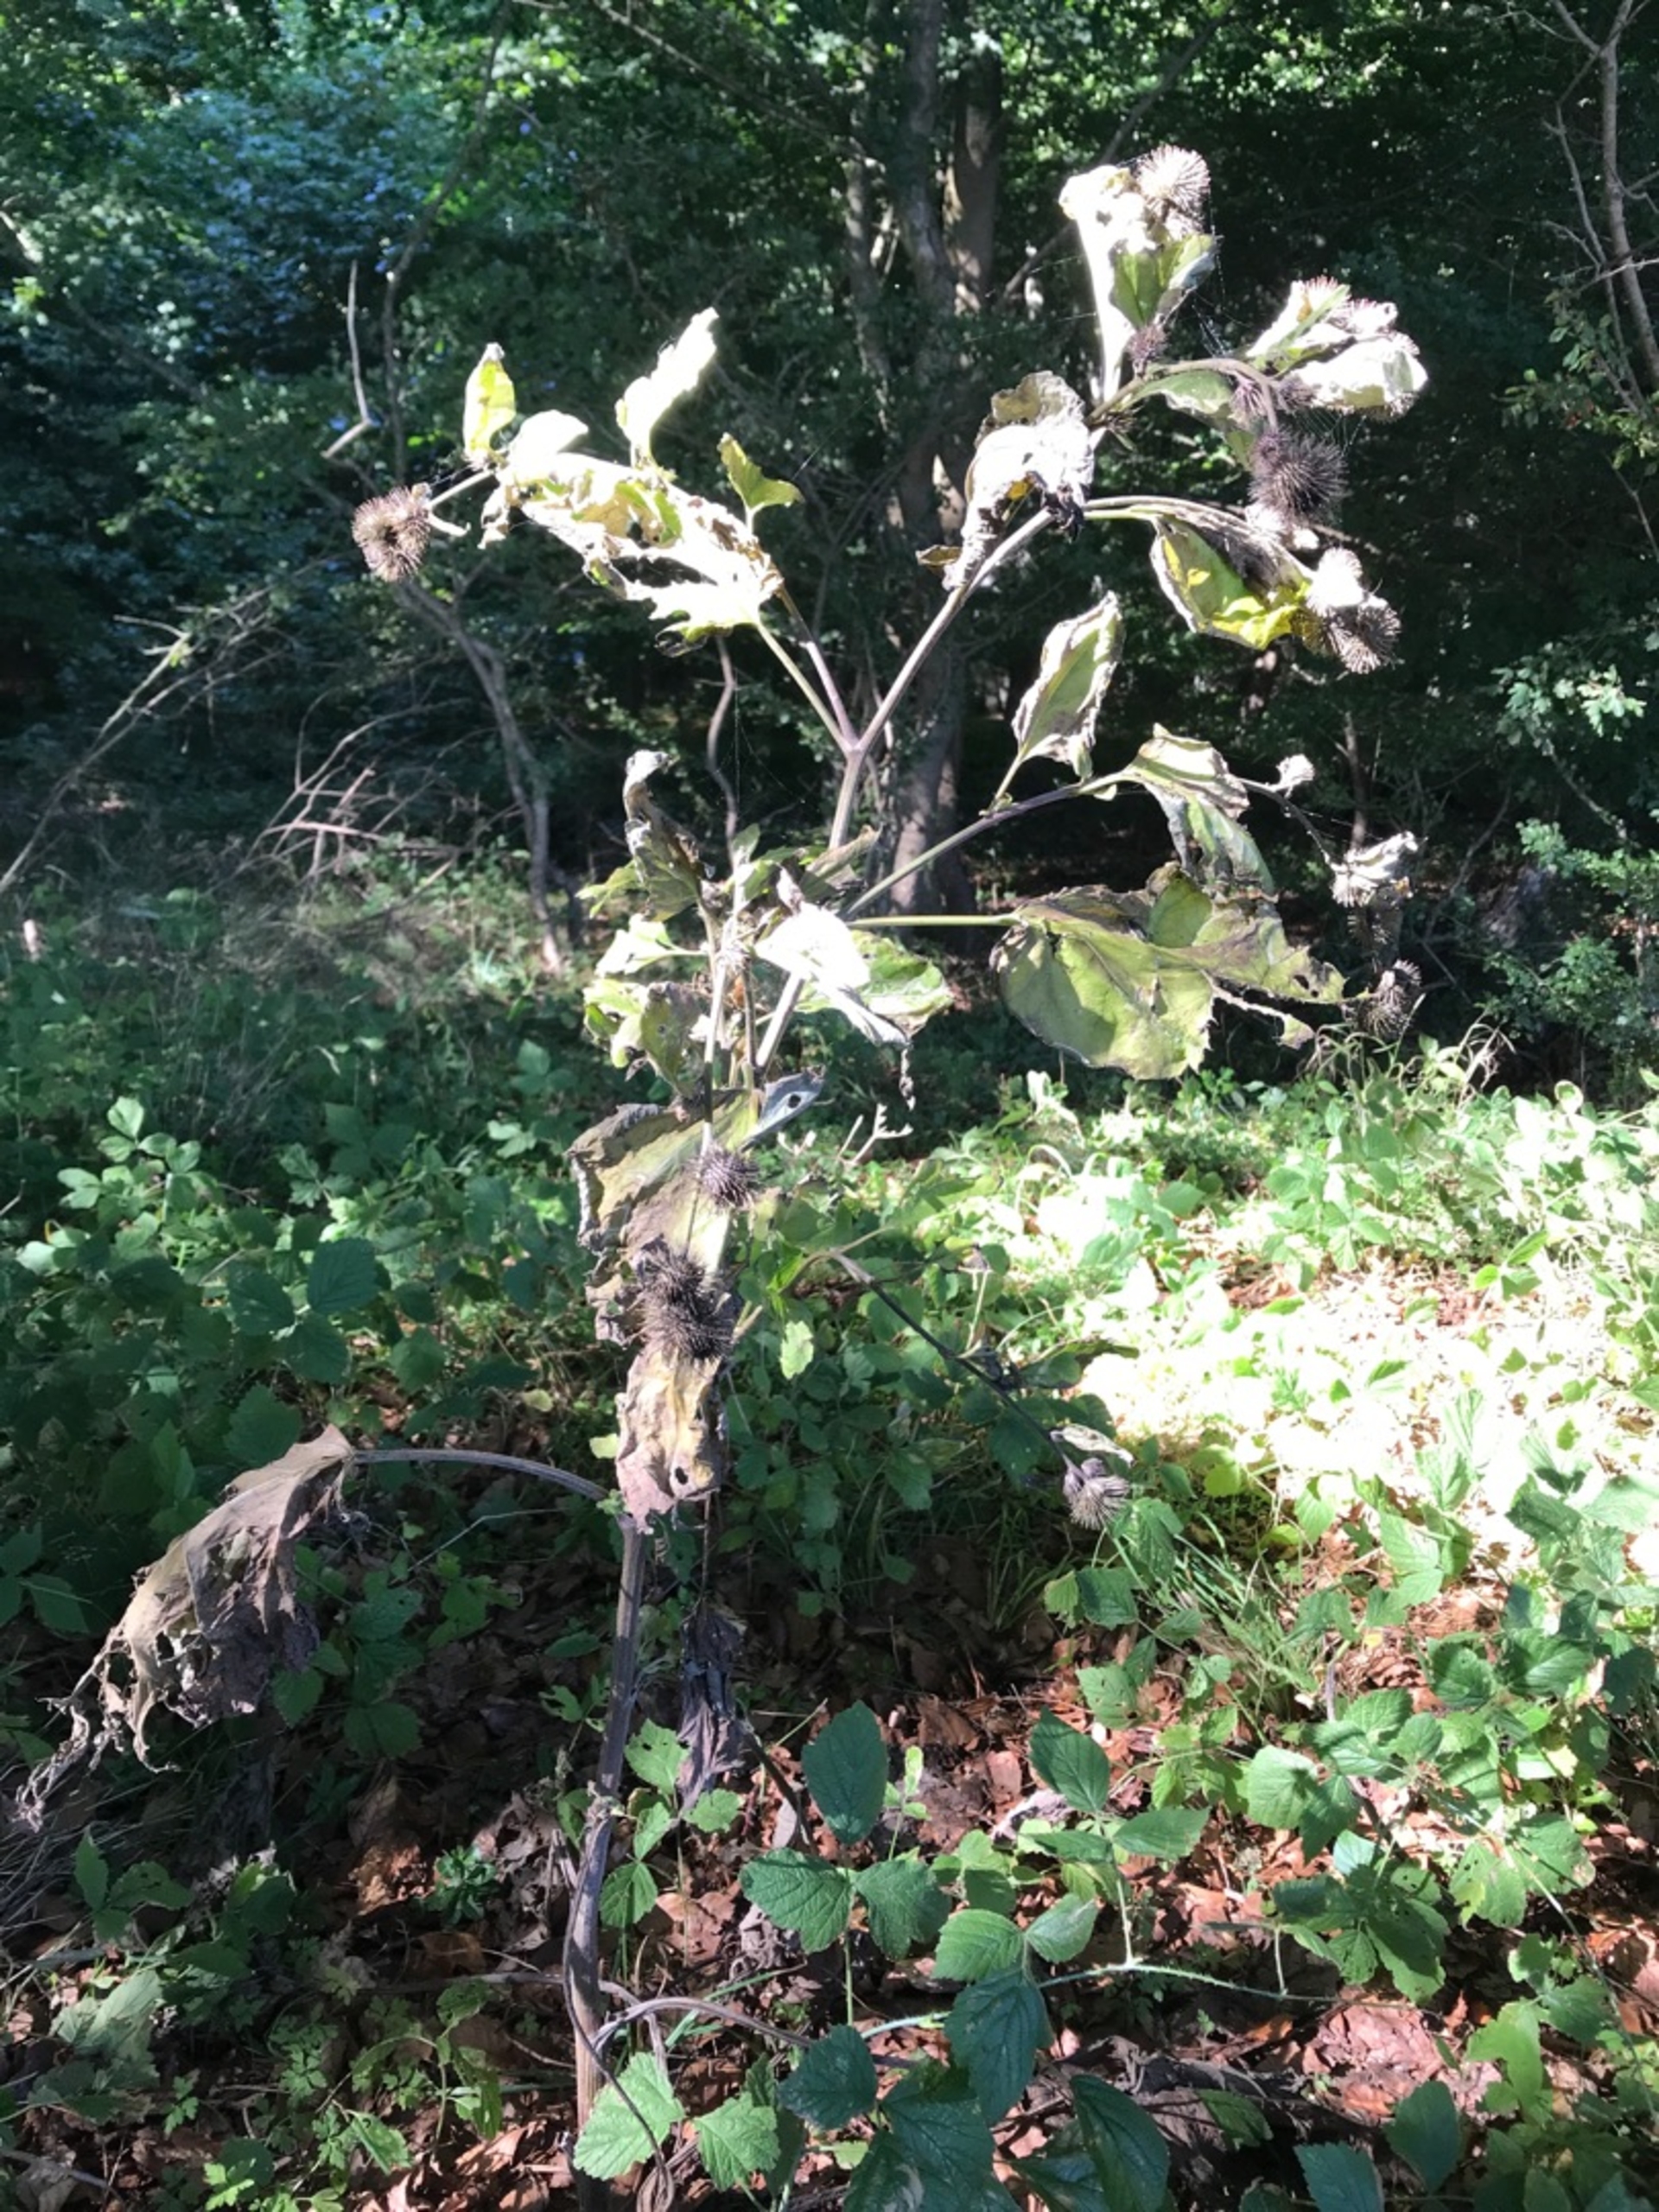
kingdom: Plantae
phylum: Tracheophyta
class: Magnoliopsida
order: Asterales
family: Asteraceae
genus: Arctium
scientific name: Arctium nemorosum
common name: Skov-burre
